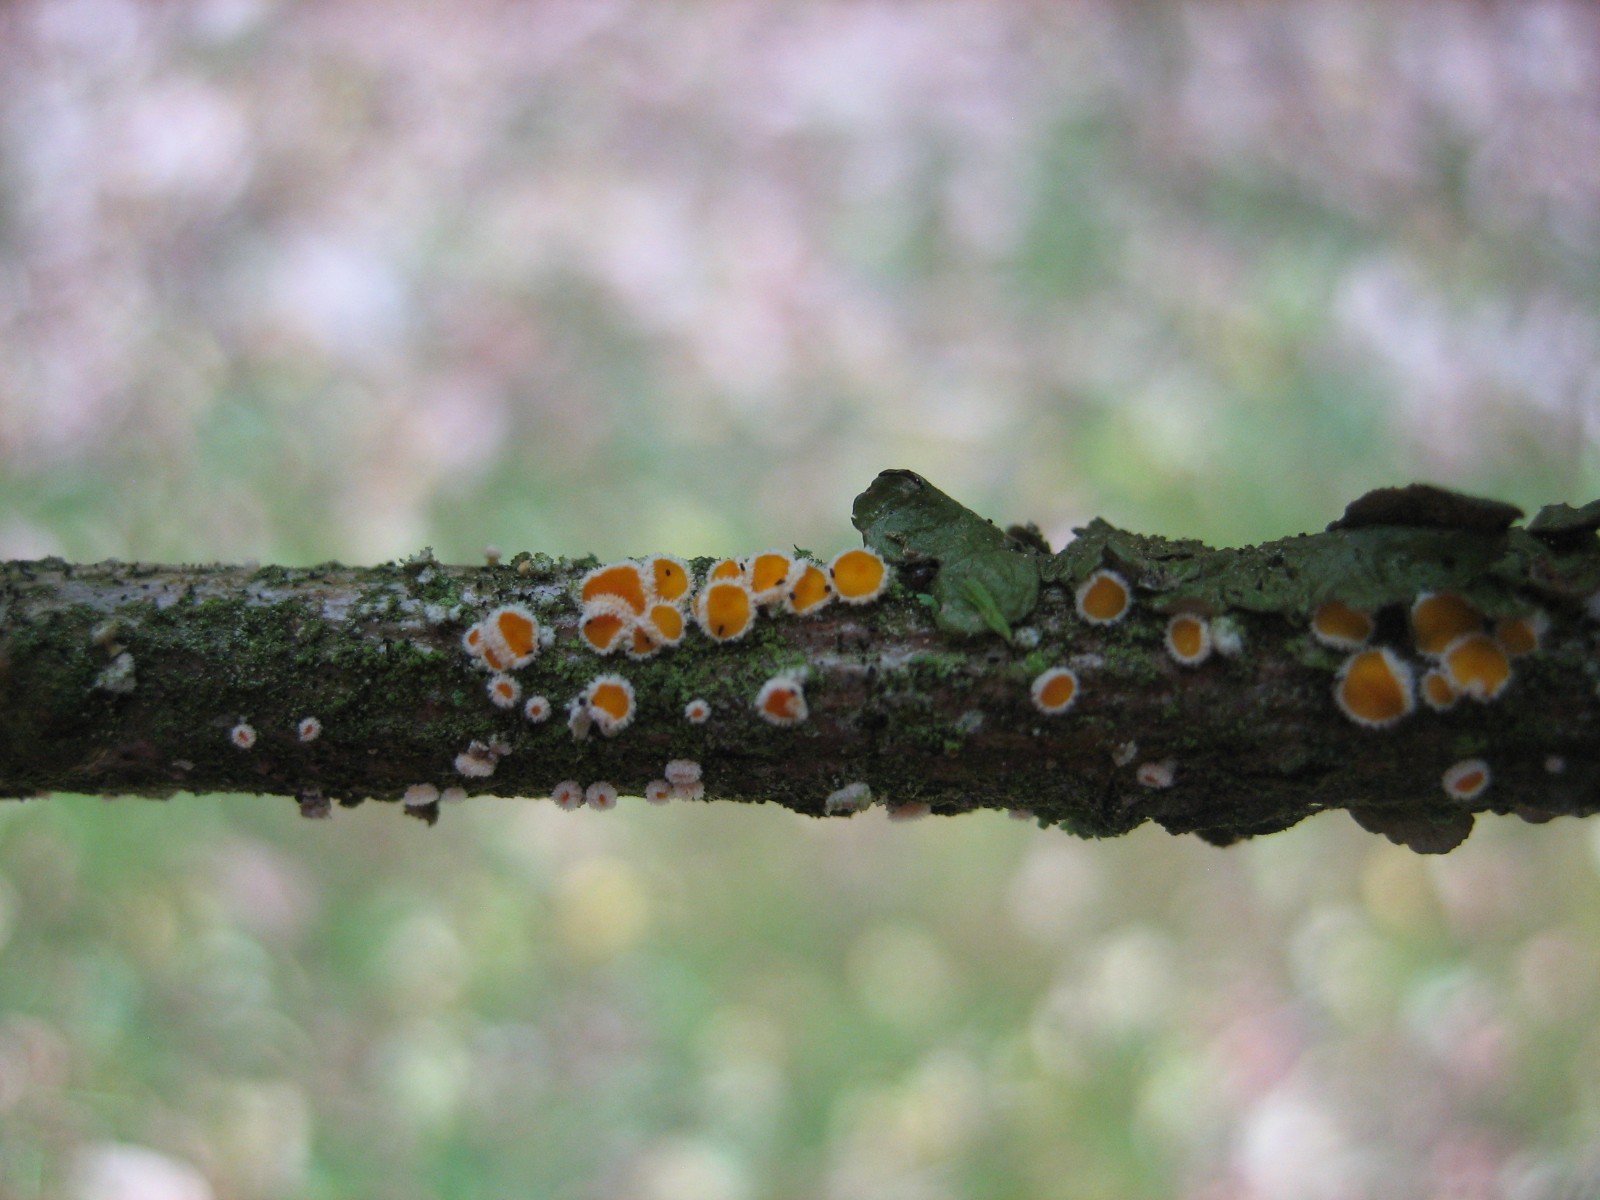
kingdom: Fungi
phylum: Ascomycota
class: Leotiomycetes
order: Helotiales
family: Lachnaceae
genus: Capitotricha
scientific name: Capitotricha bicolor
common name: prægtig frynseskive
